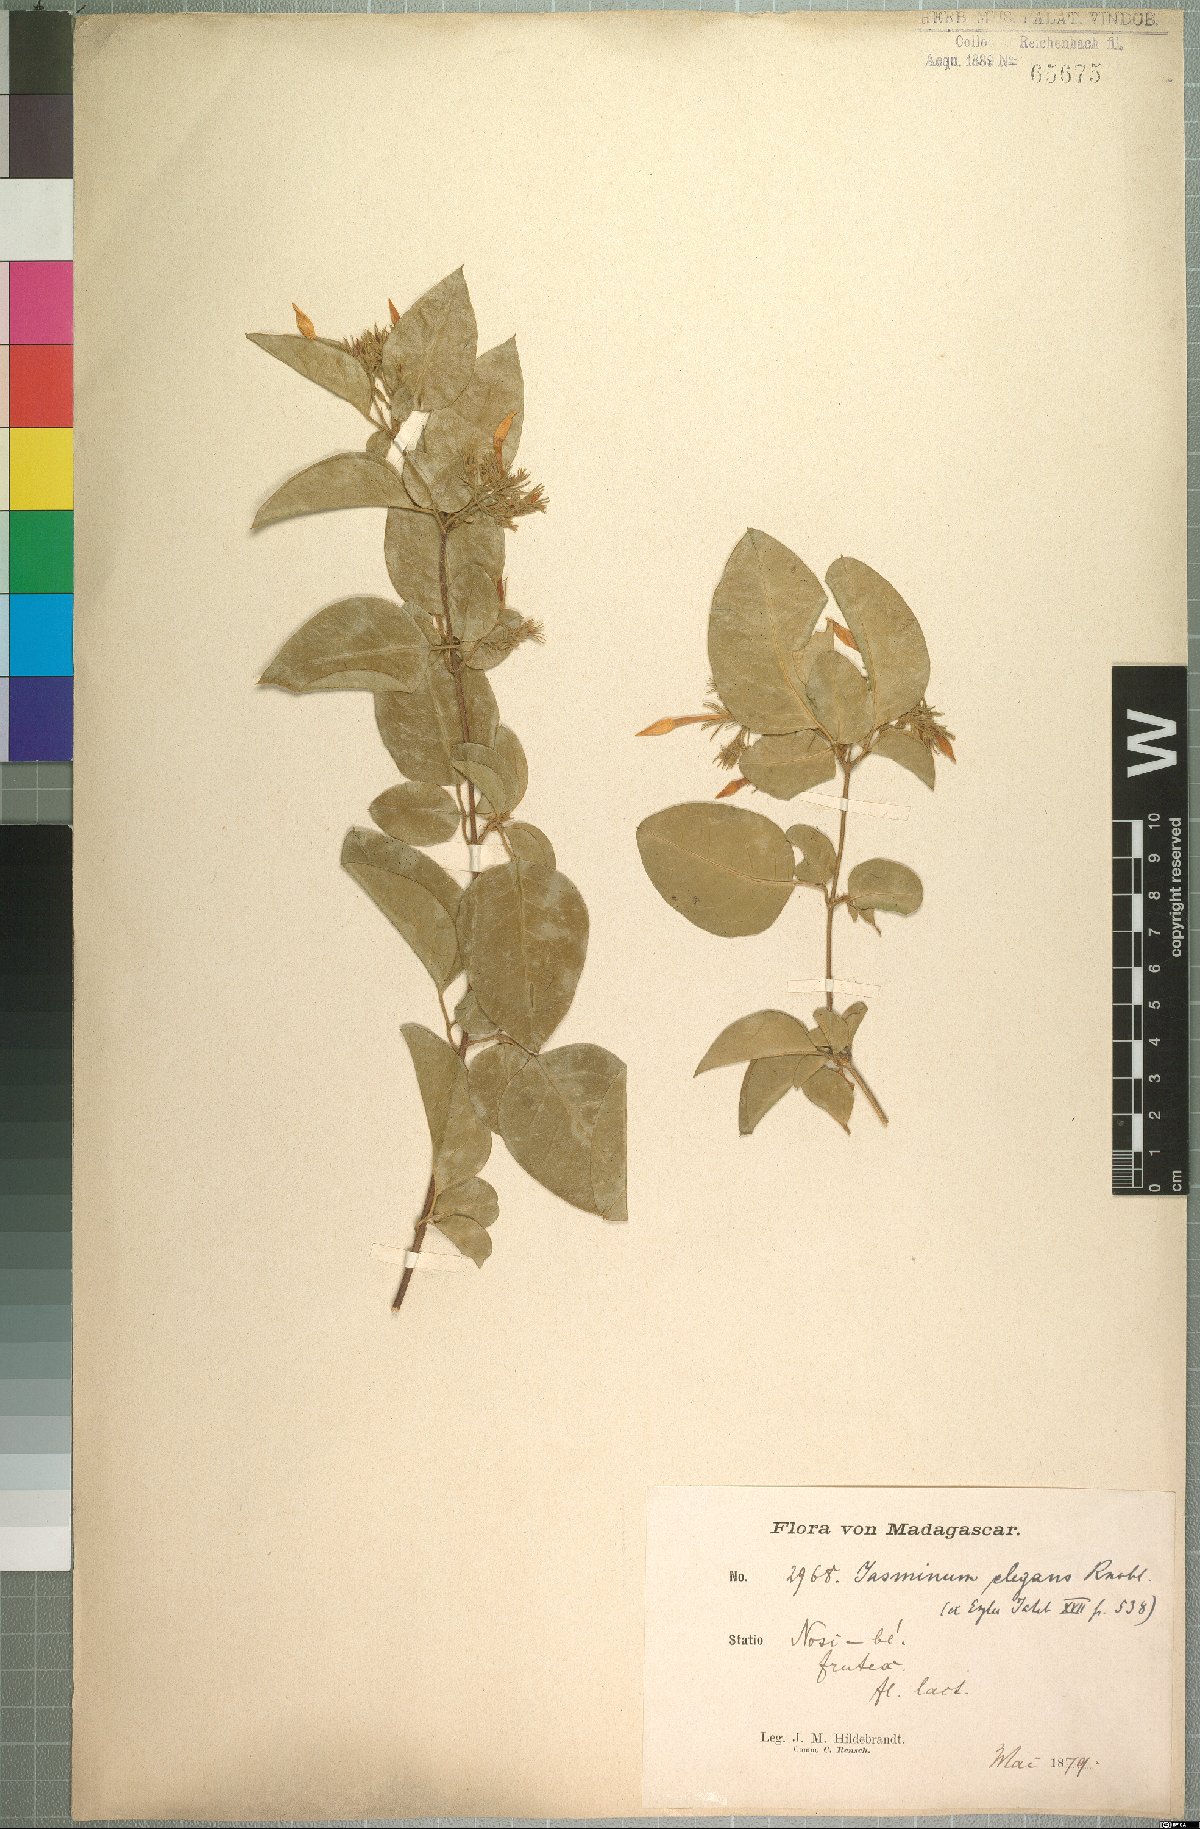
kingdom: Plantae
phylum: Tracheophyta
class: Magnoliopsida
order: Lamiales
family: Oleaceae
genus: Jasminum
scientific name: Jasminum elegans
